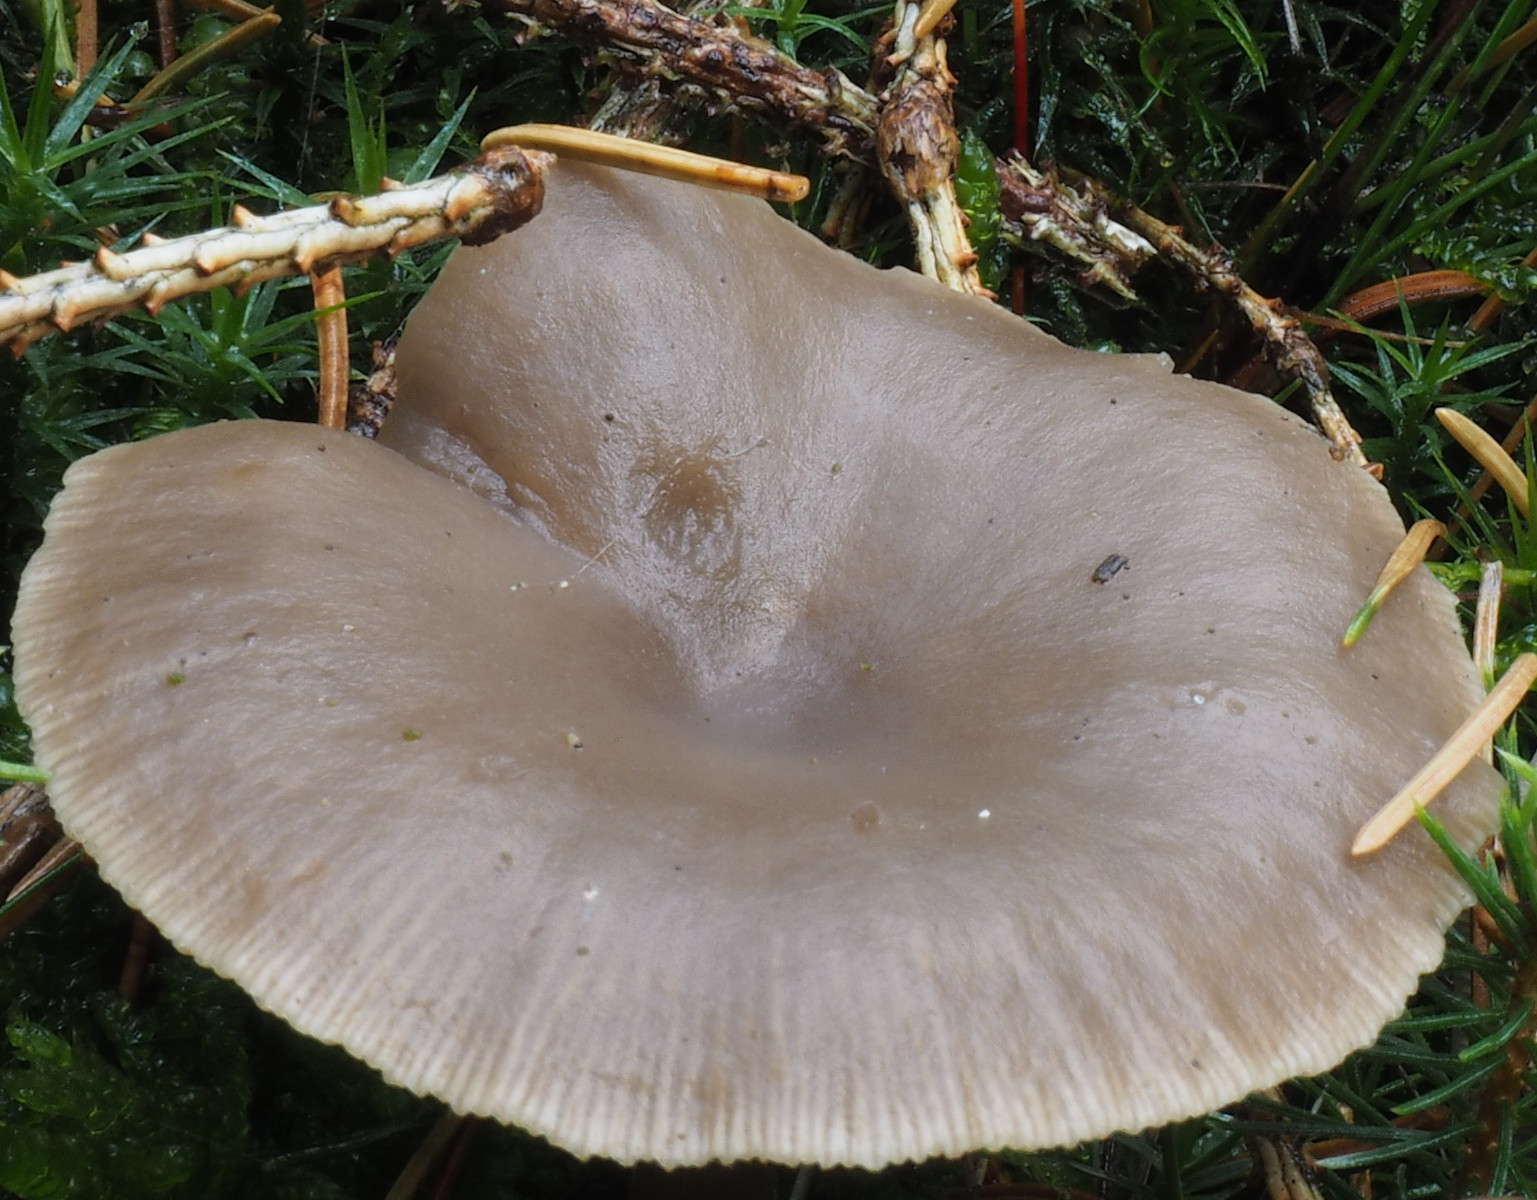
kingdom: Fungi
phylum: Basidiomycota
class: Agaricomycetes
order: Agaricales
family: Tricholomataceae
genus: Clitocybe
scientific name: Clitocybe vibecina
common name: randstribet tragthat
